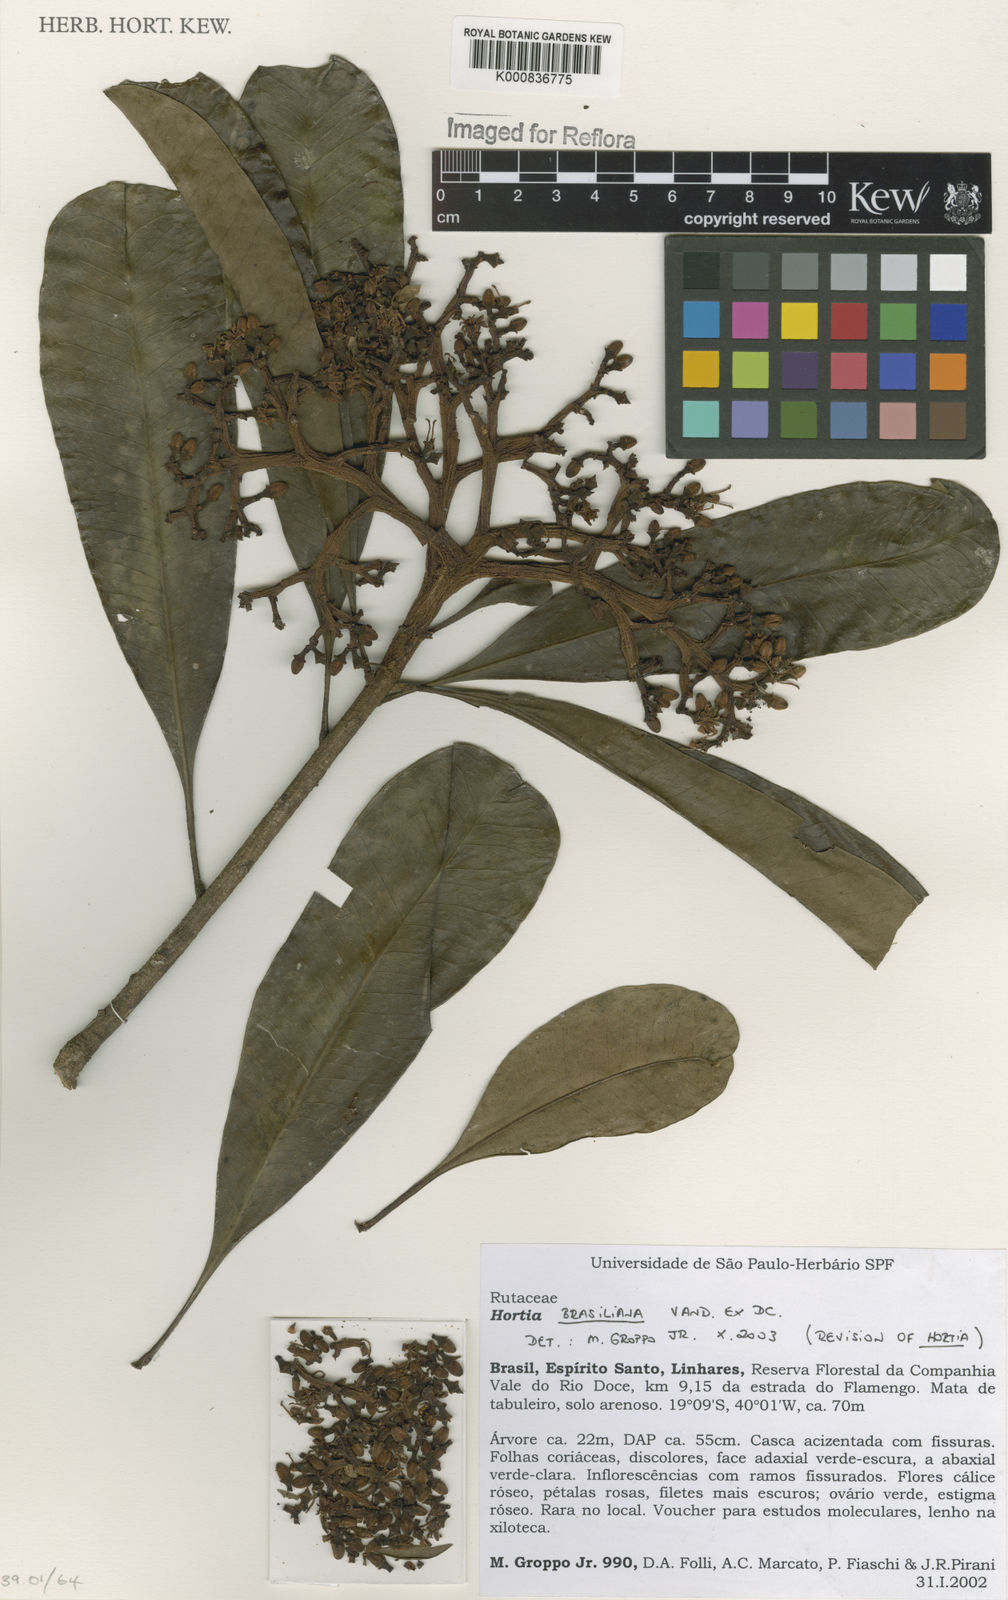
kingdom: Plantae
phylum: Tracheophyta
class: Magnoliopsida
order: Sapindales
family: Rutaceae
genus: Hortia
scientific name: Hortia brasiliana
